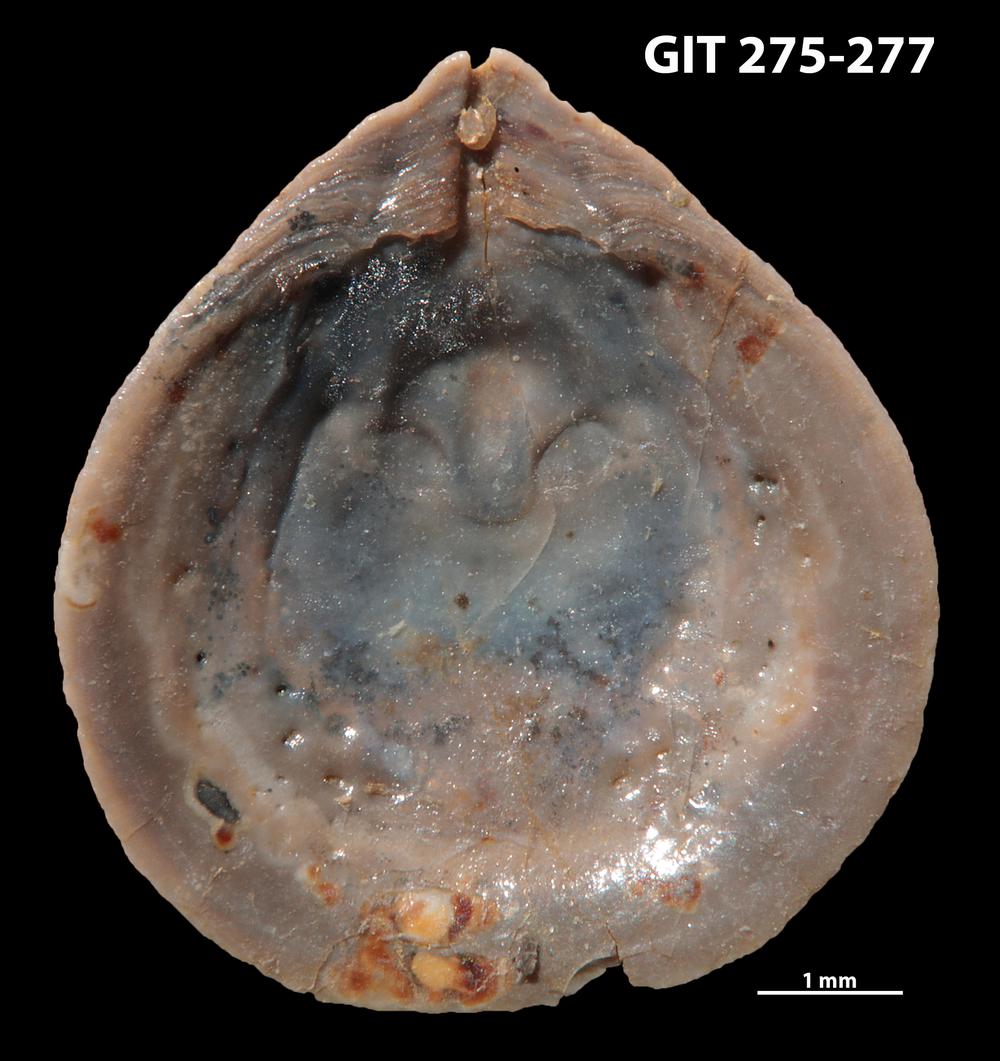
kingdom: Animalia
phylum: Brachiopoda
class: Lingulata
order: Lingulida
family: Lingulidae
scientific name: Lingulidae
